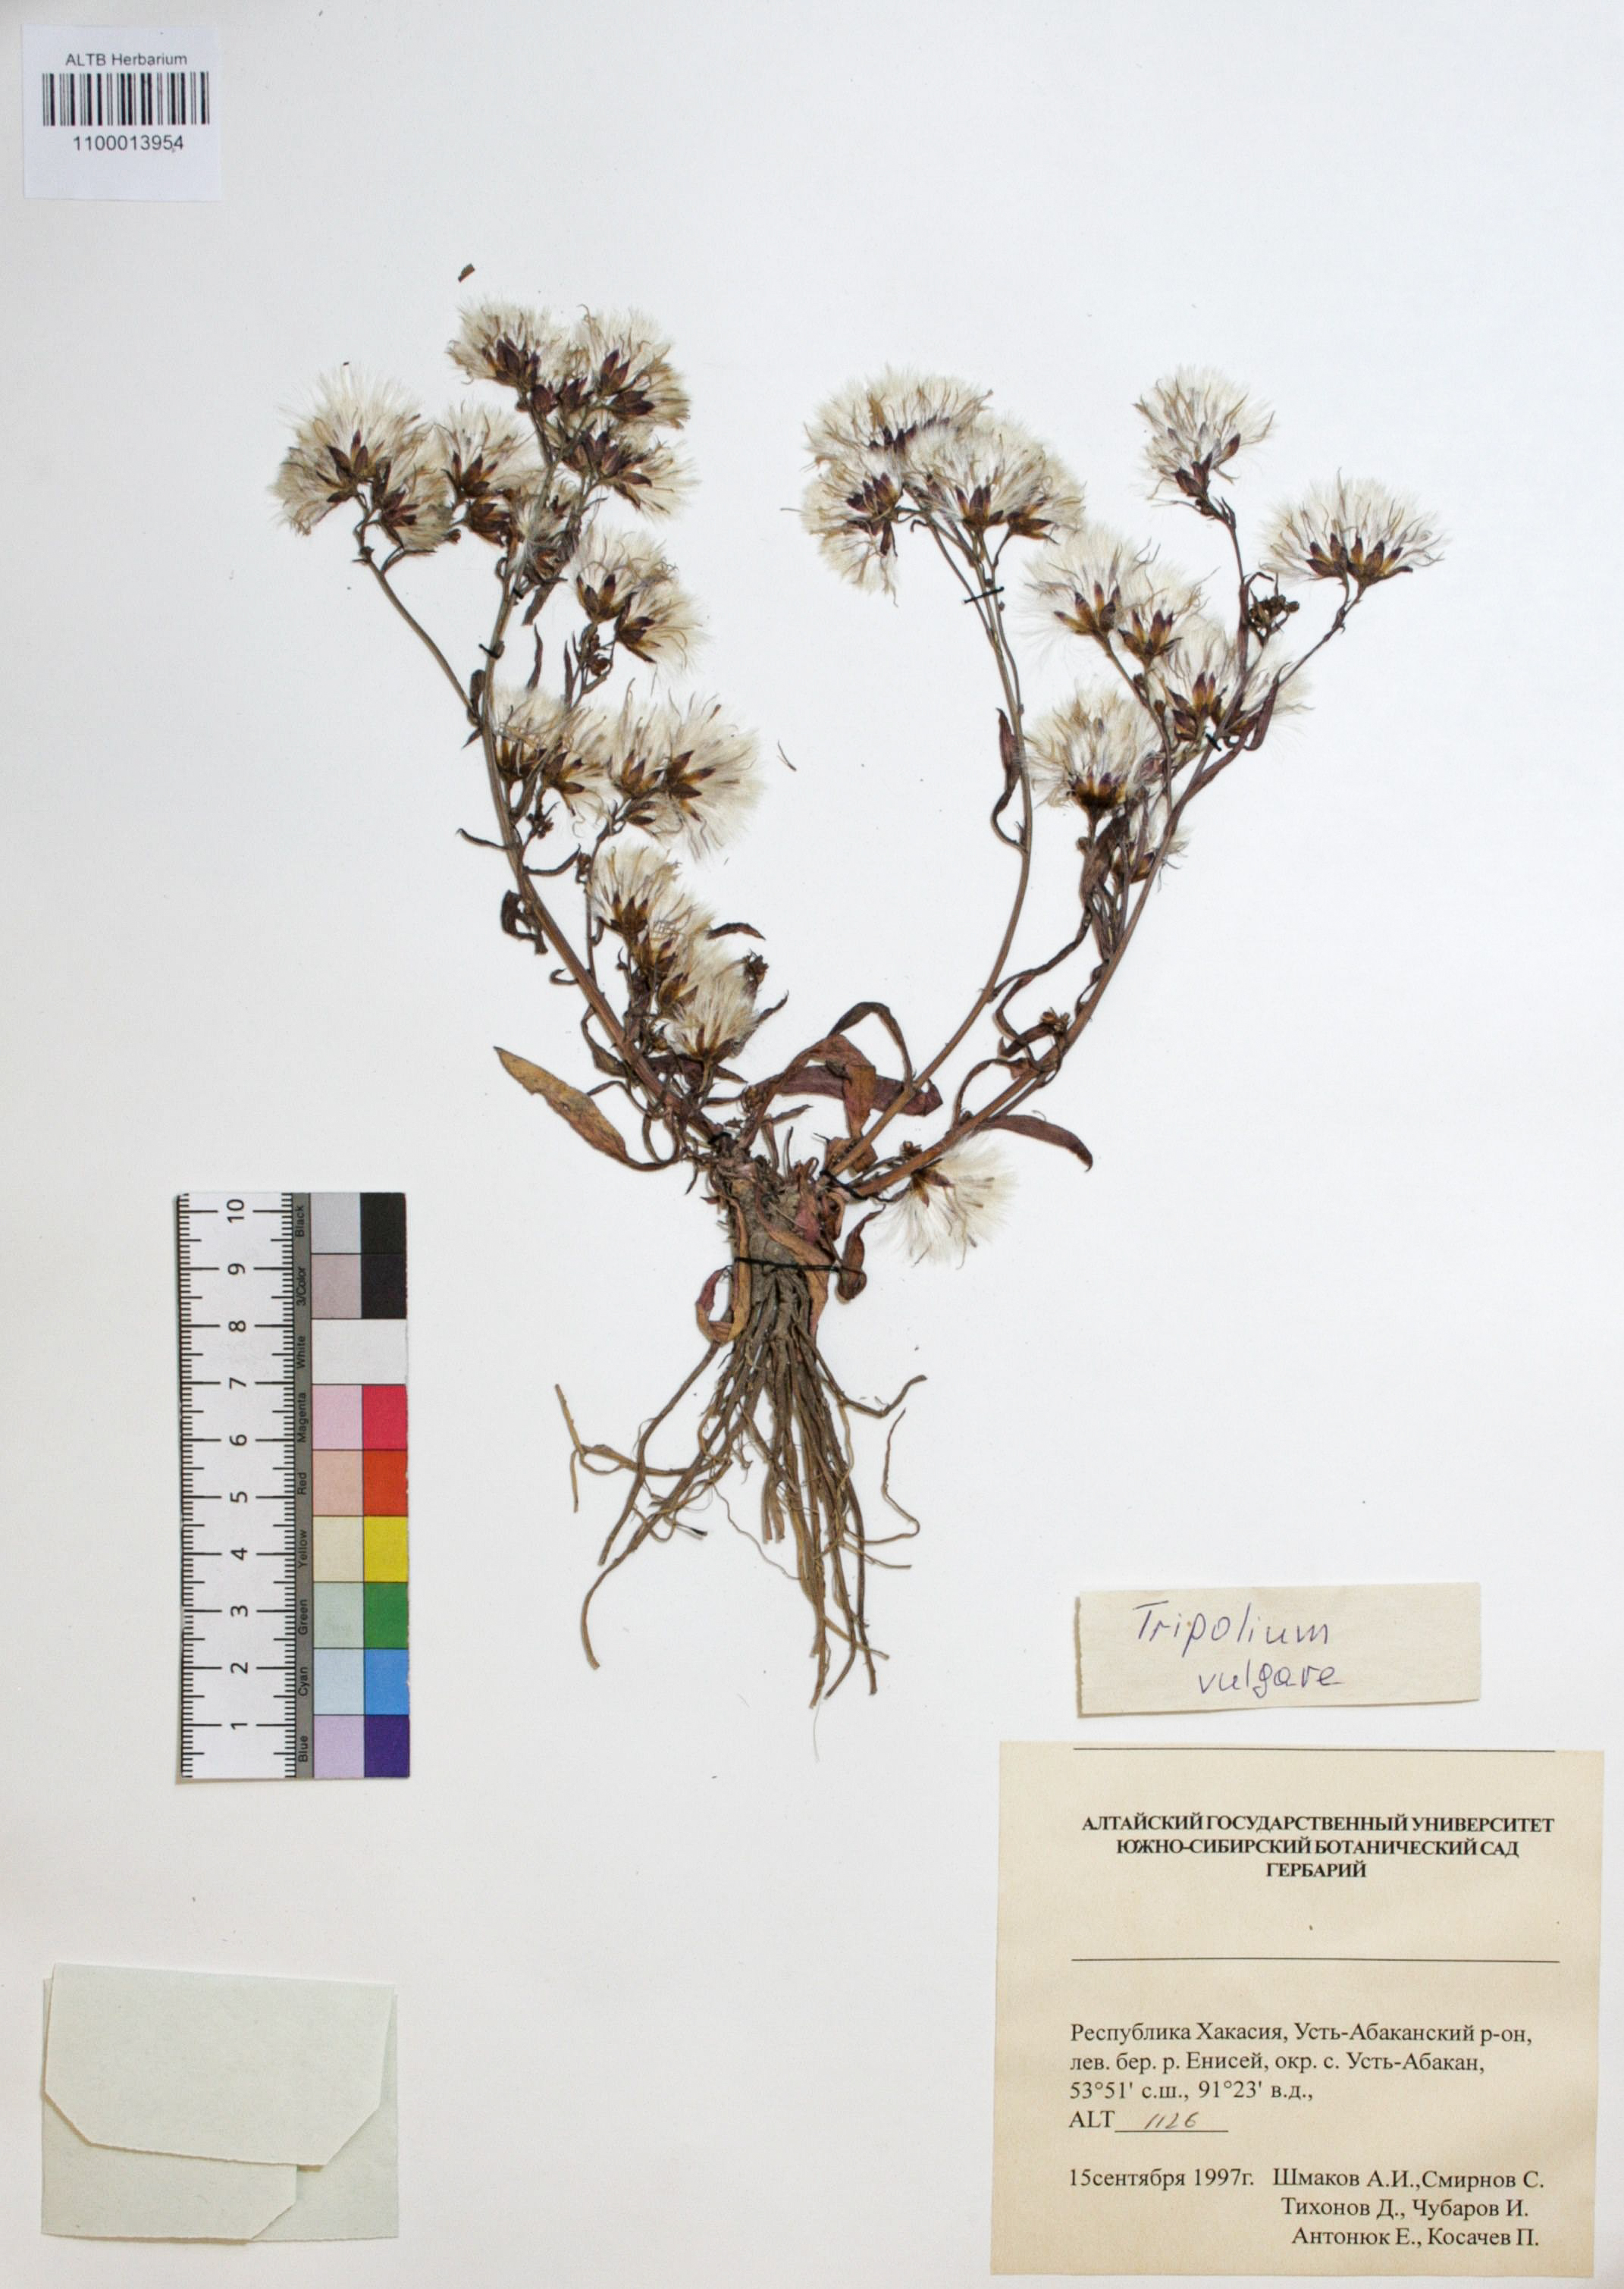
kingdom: Plantae
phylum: Tracheophyta
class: Magnoliopsida
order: Asterales
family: Asteraceae
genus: Tripolium
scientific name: Tripolium pannonicum
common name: Sea aster
